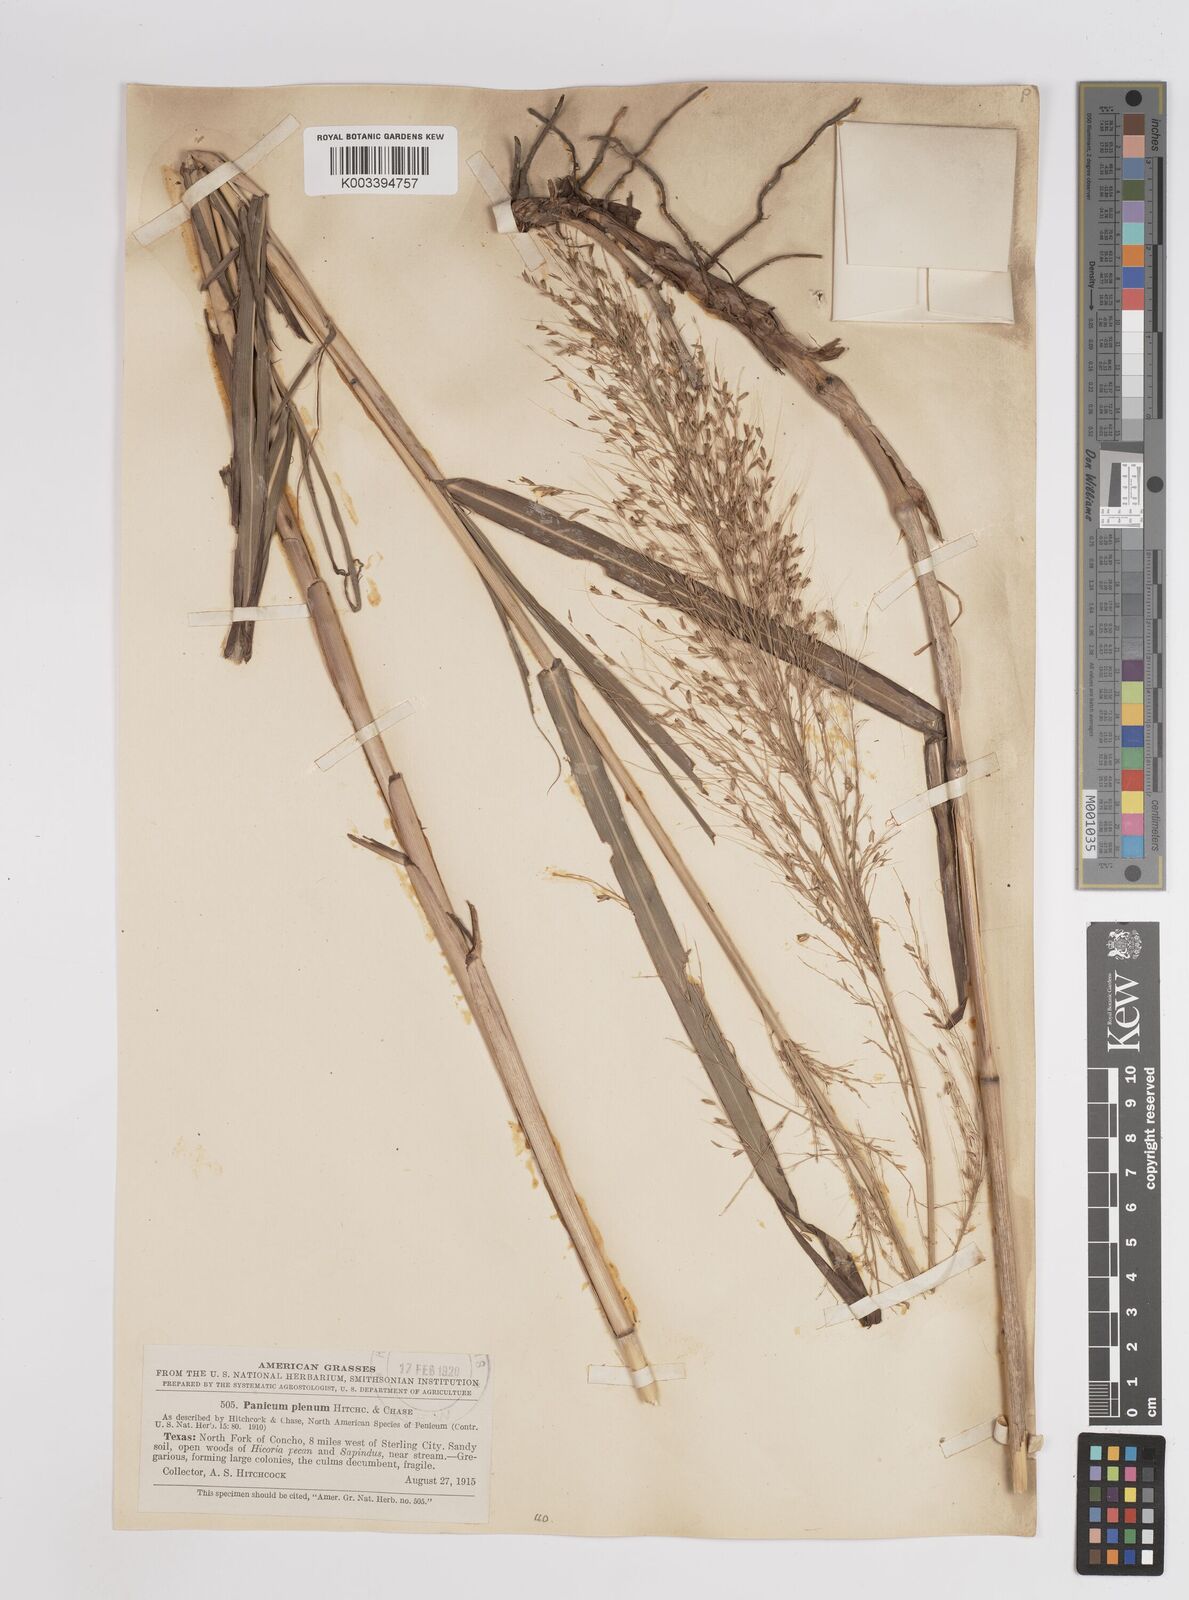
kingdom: Plantae
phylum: Tracheophyta
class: Liliopsida
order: Poales
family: Poaceae
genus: Panicum
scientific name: Panicum plenum
